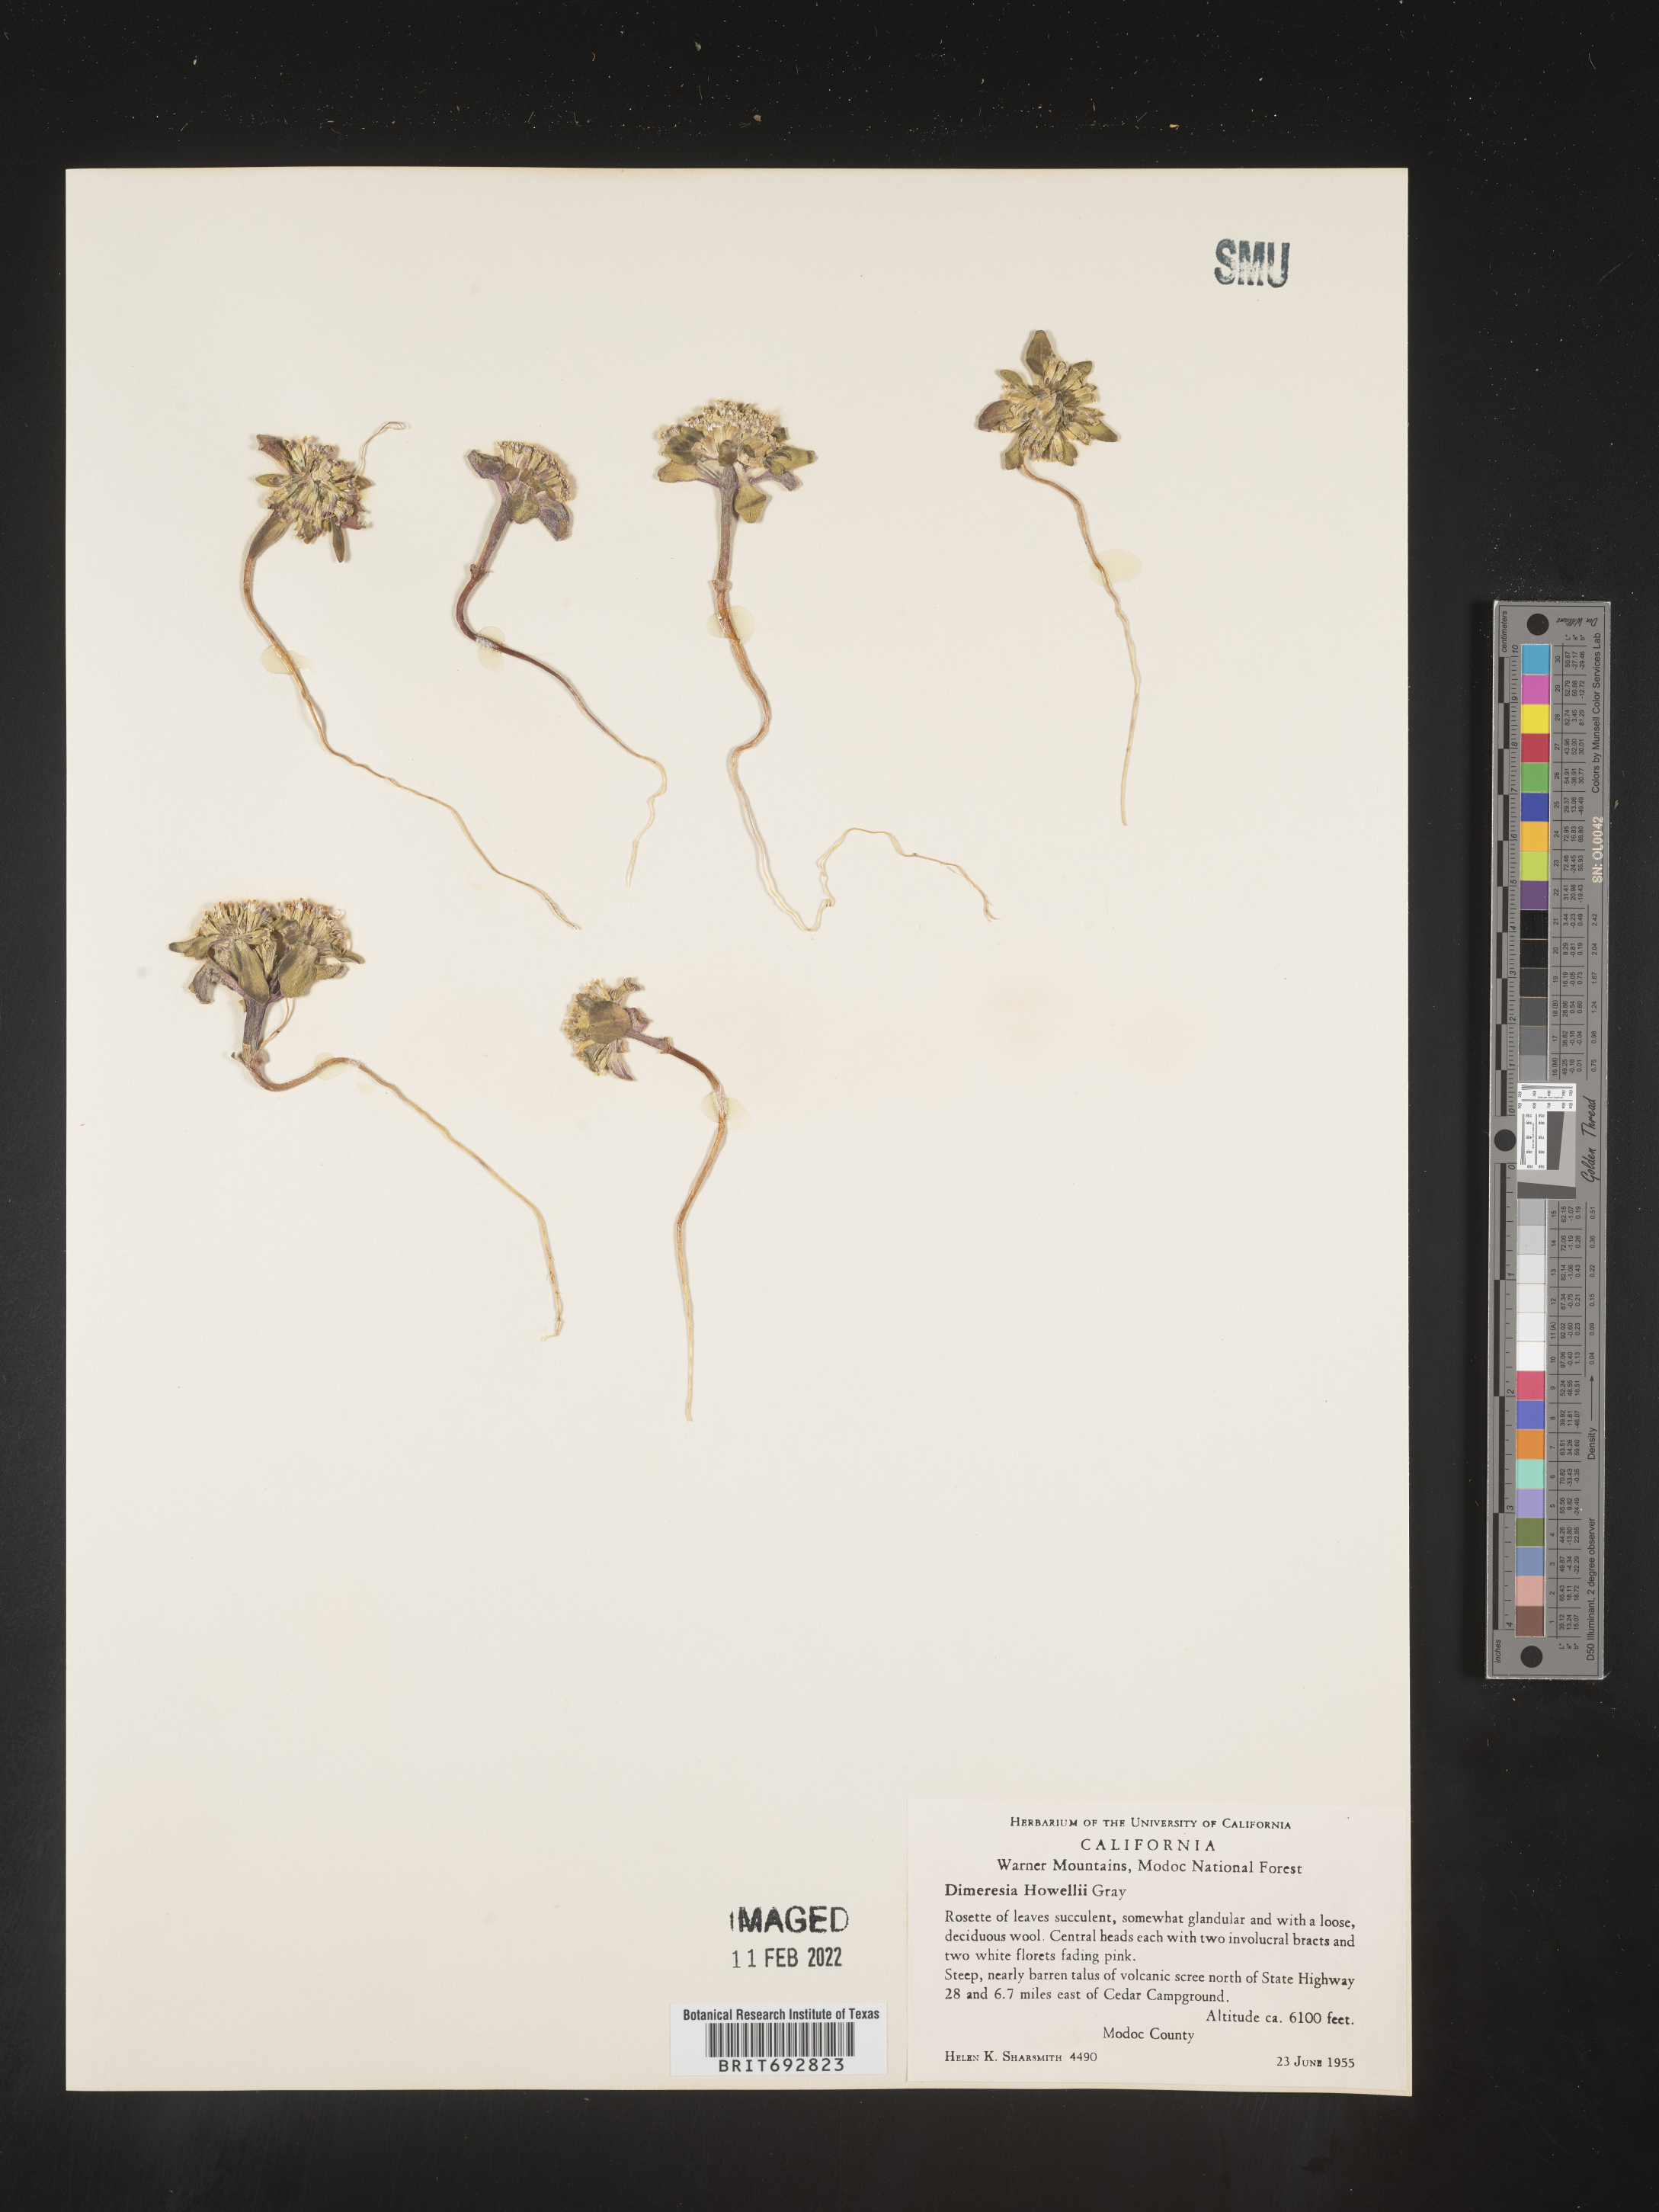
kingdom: Plantae
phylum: Tracheophyta
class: Magnoliopsida
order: Asterales
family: Asteraceae
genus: Dimeresia
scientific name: Dimeresia
